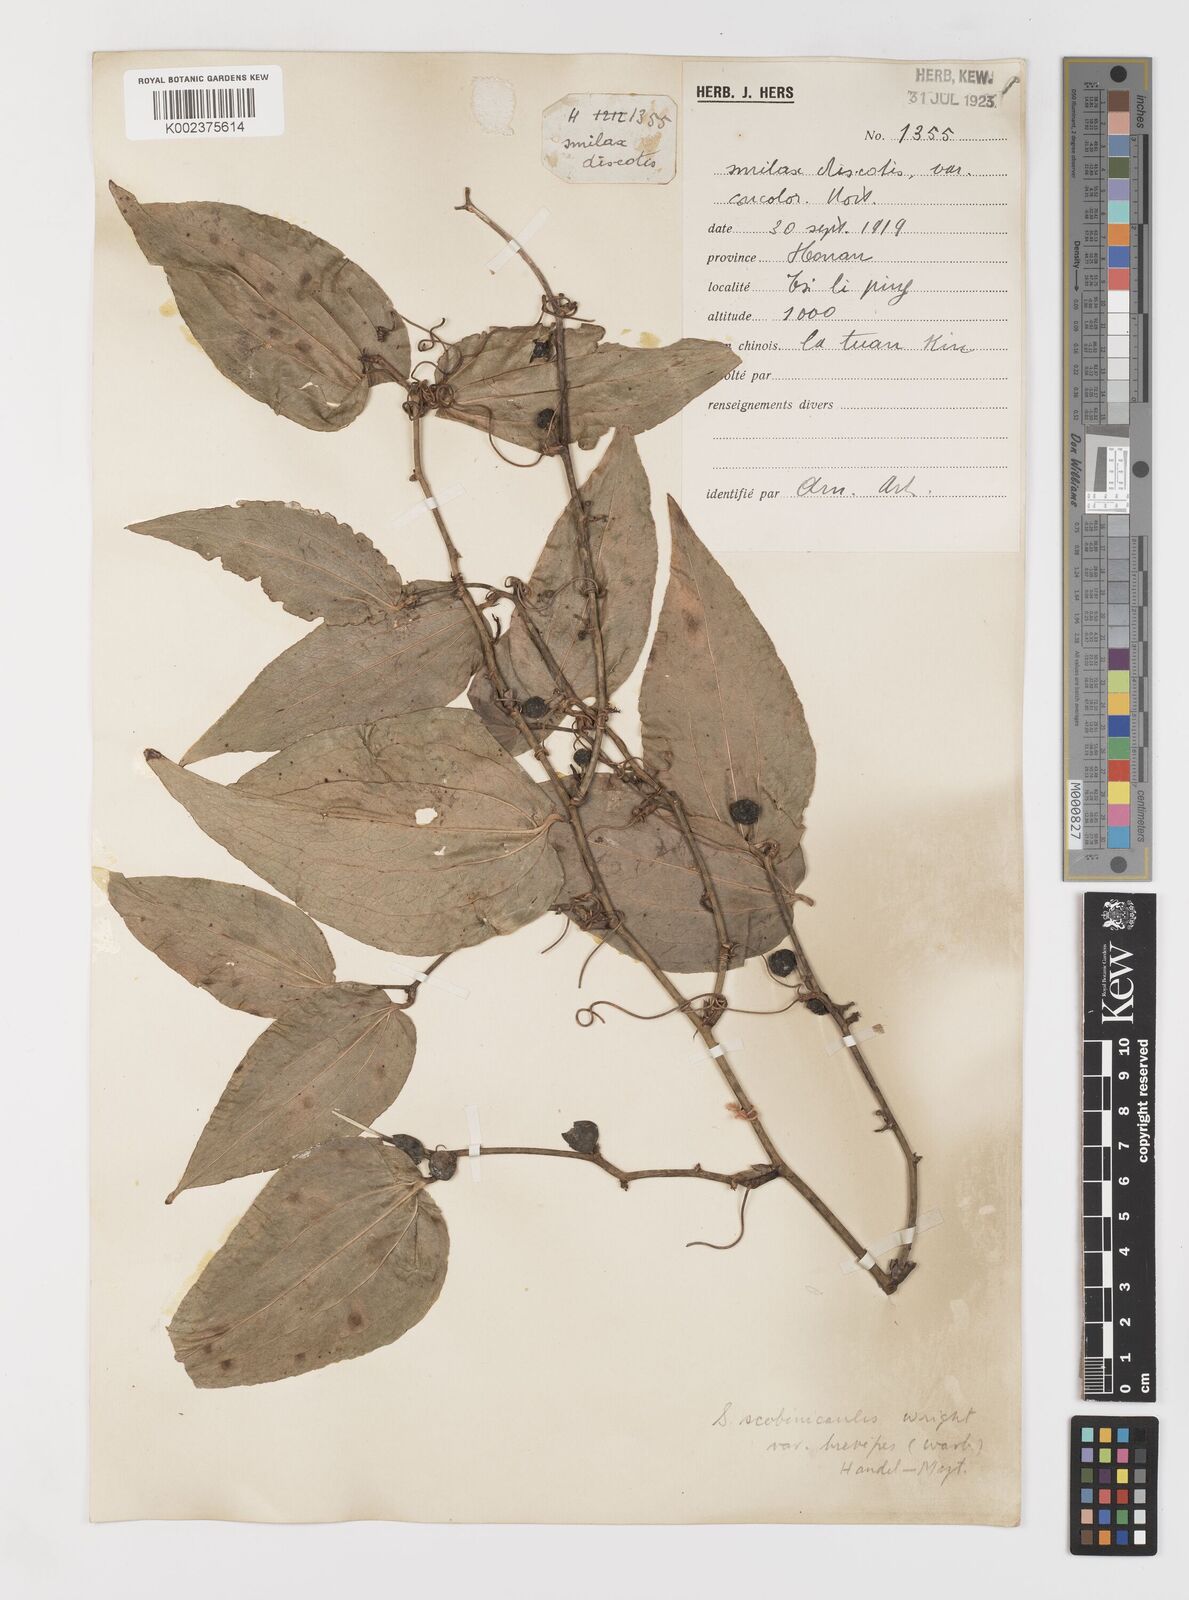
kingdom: Plantae
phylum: Tracheophyta
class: Liliopsida
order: Liliales
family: Smilacaceae
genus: Smilax
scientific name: Smilax scobinicaulis
